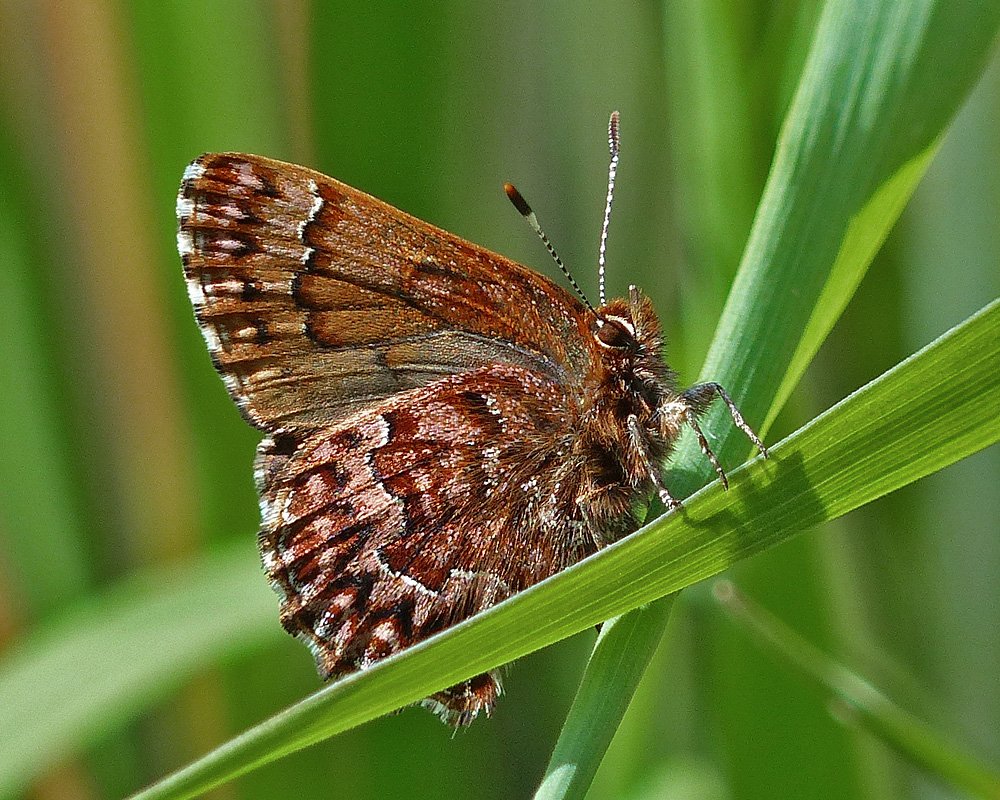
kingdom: Animalia
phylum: Arthropoda
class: Insecta
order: Lepidoptera
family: Lycaenidae
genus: Incisalia
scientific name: Incisalia eryphon
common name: Western Pine Elfin
